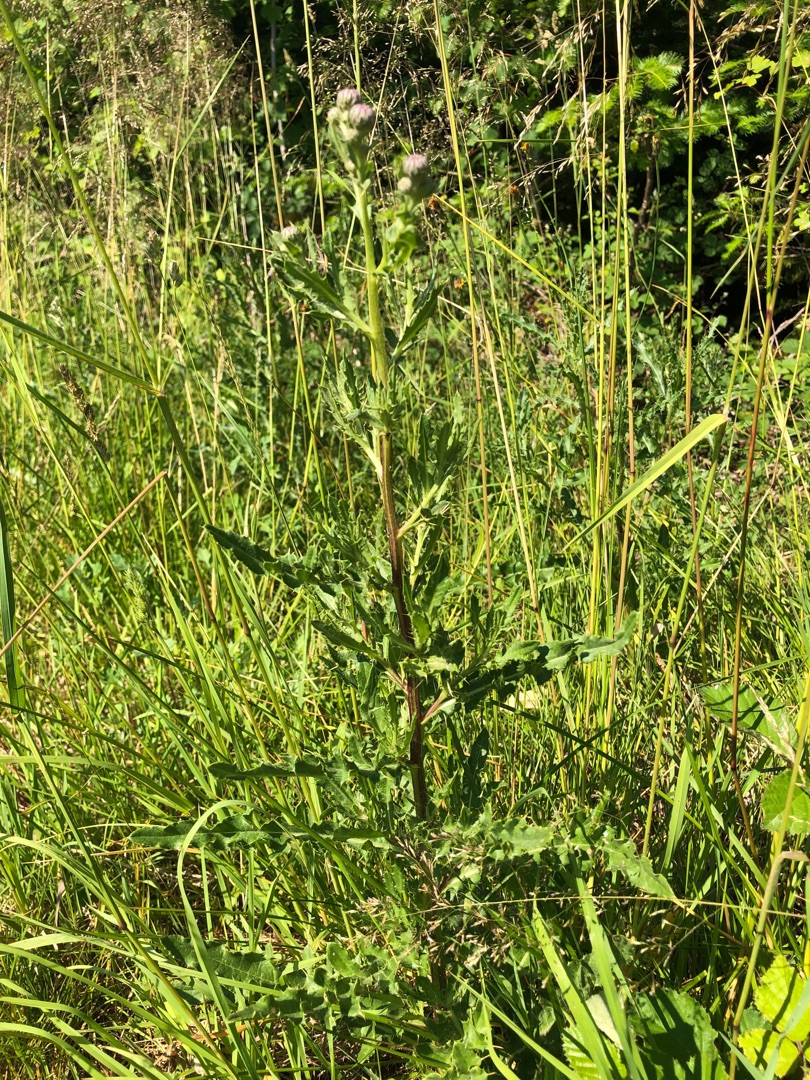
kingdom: Plantae
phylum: Tracheophyta
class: Magnoliopsida
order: Asterales
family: Asteraceae
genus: Cirsium
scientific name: Cirsium arvense
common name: Ager-tidsel
